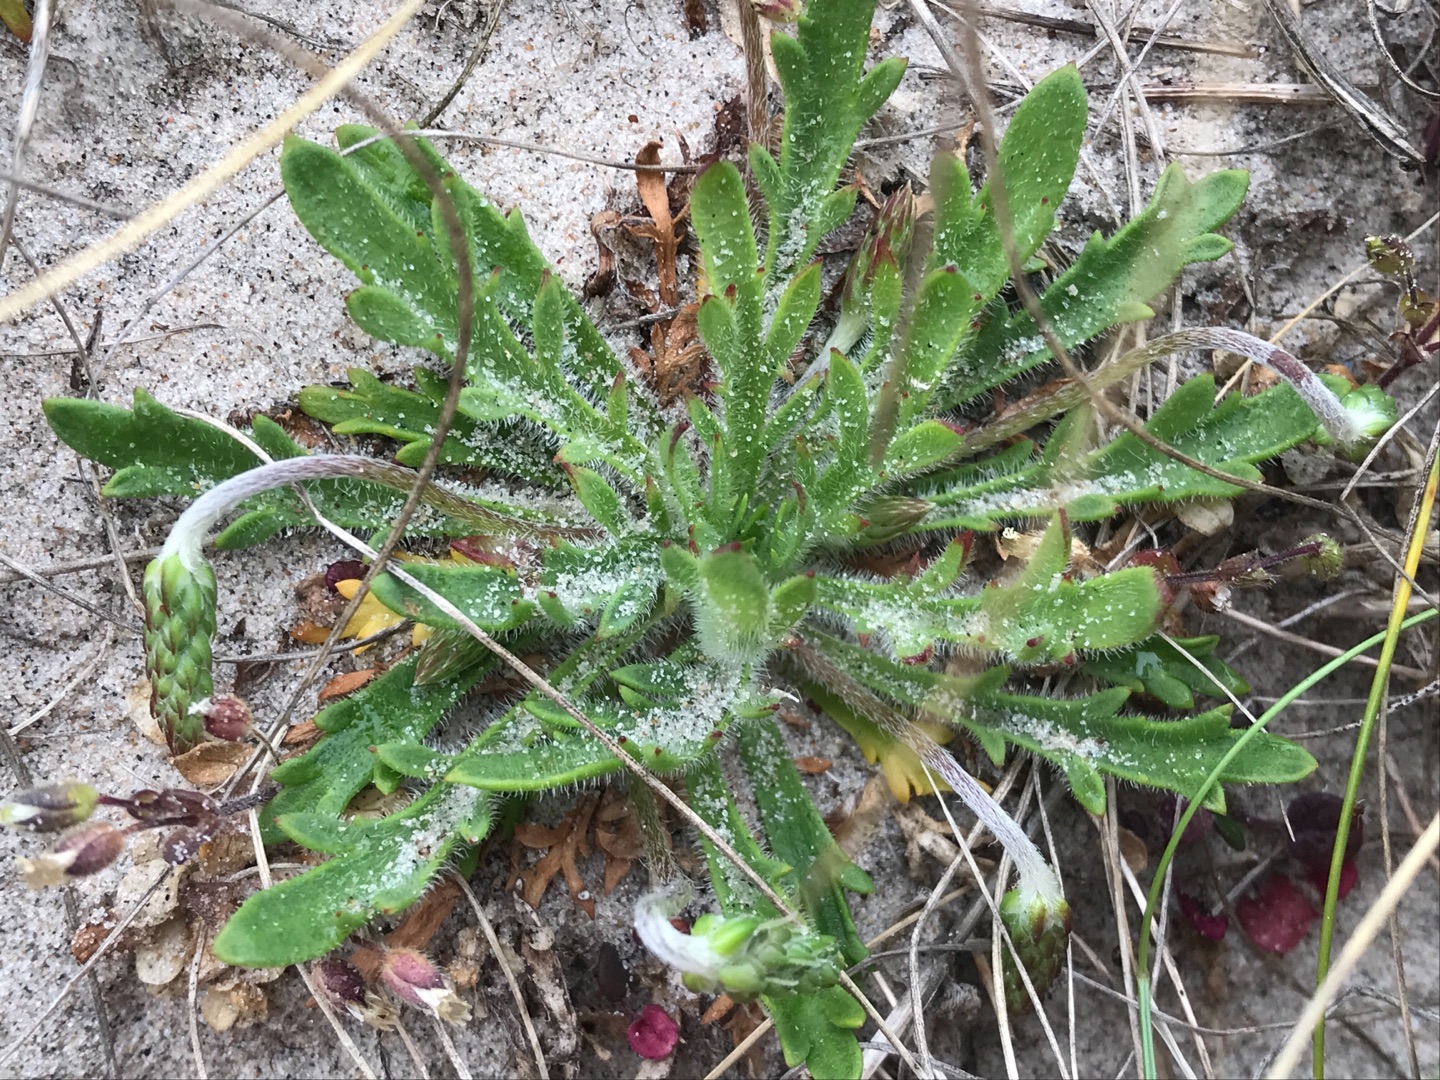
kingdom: Plantae
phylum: Tracheophyta
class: Magnoliopsida
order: Lamiales
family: Plantaginaceae
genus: Plantago
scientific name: Plantago coronopus
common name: Fliget vejbred
